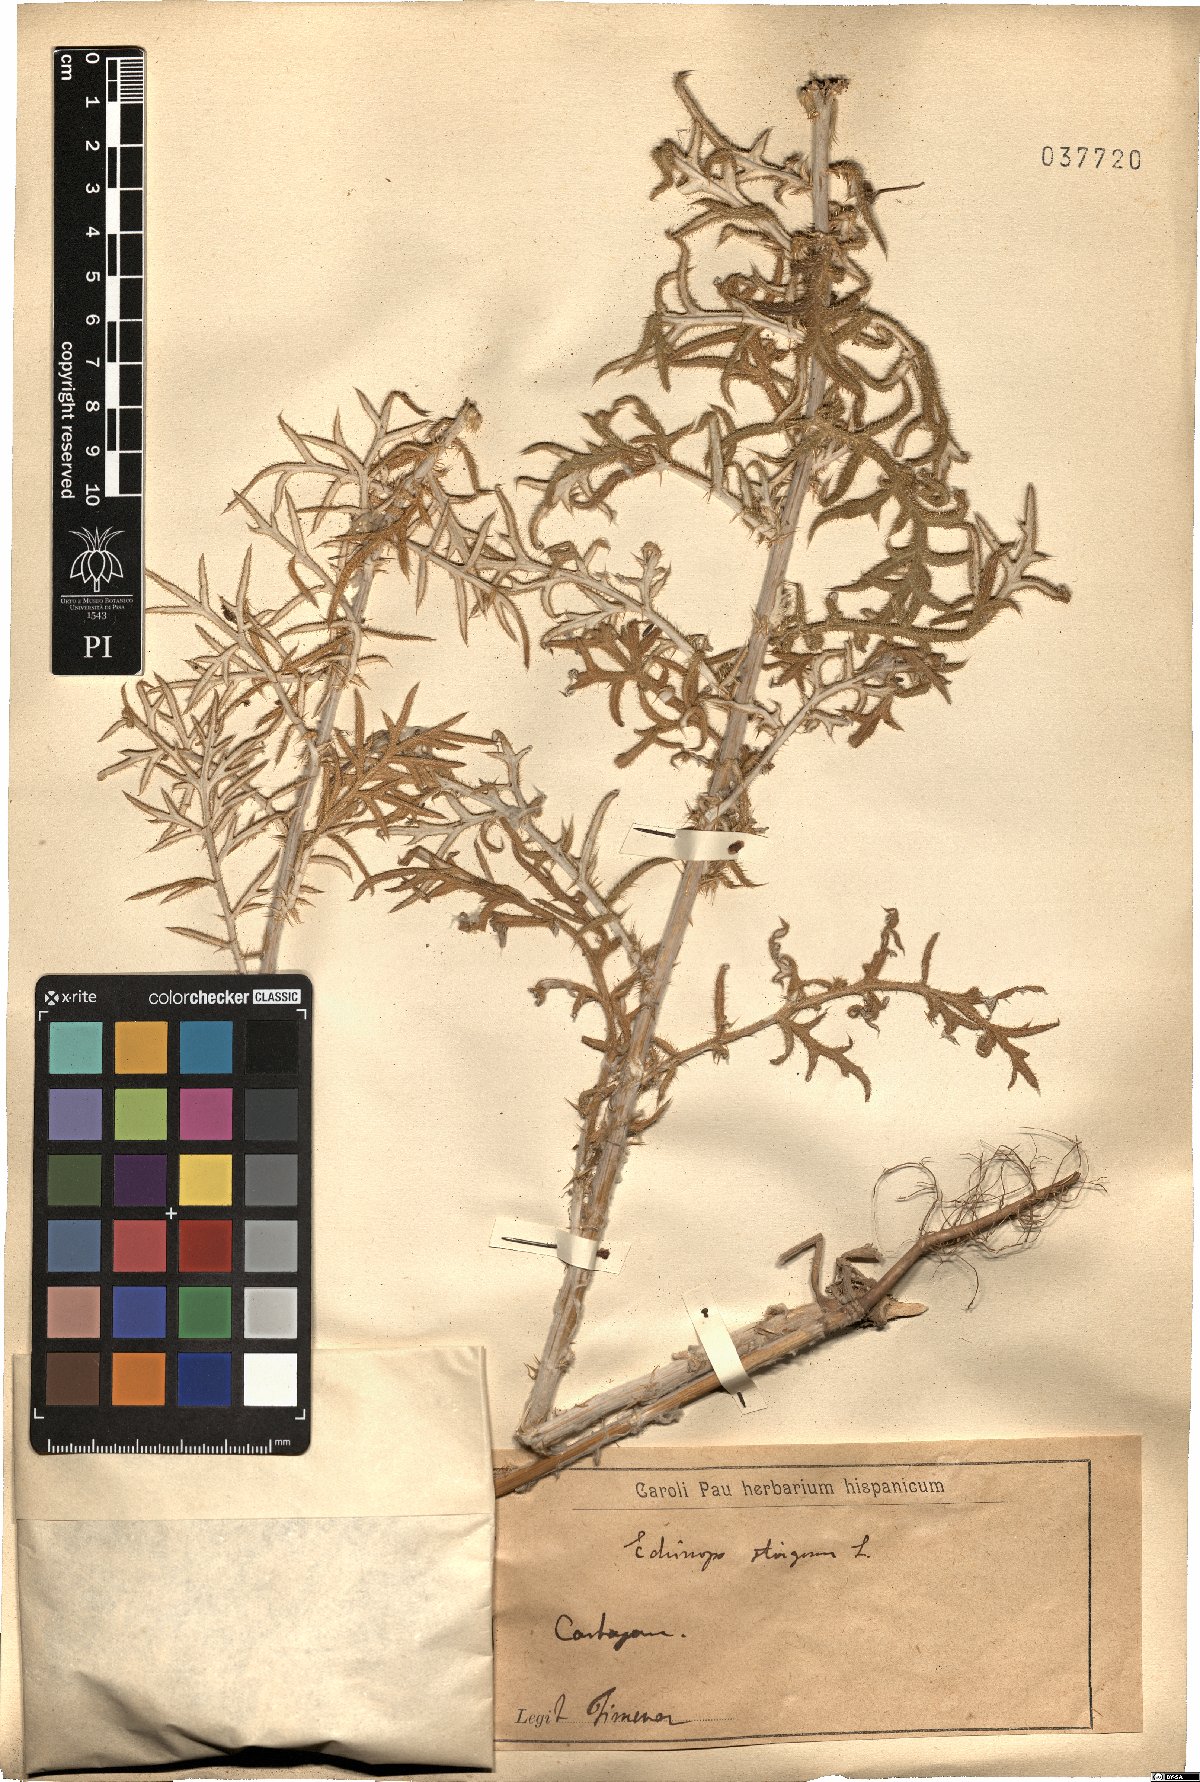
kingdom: Plantae
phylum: Tracheophyta
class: Magnoliopsida
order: Asterales
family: Asteraceae
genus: Echinops
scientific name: Echinops strigosus
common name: Rough-leaf globe thistle
